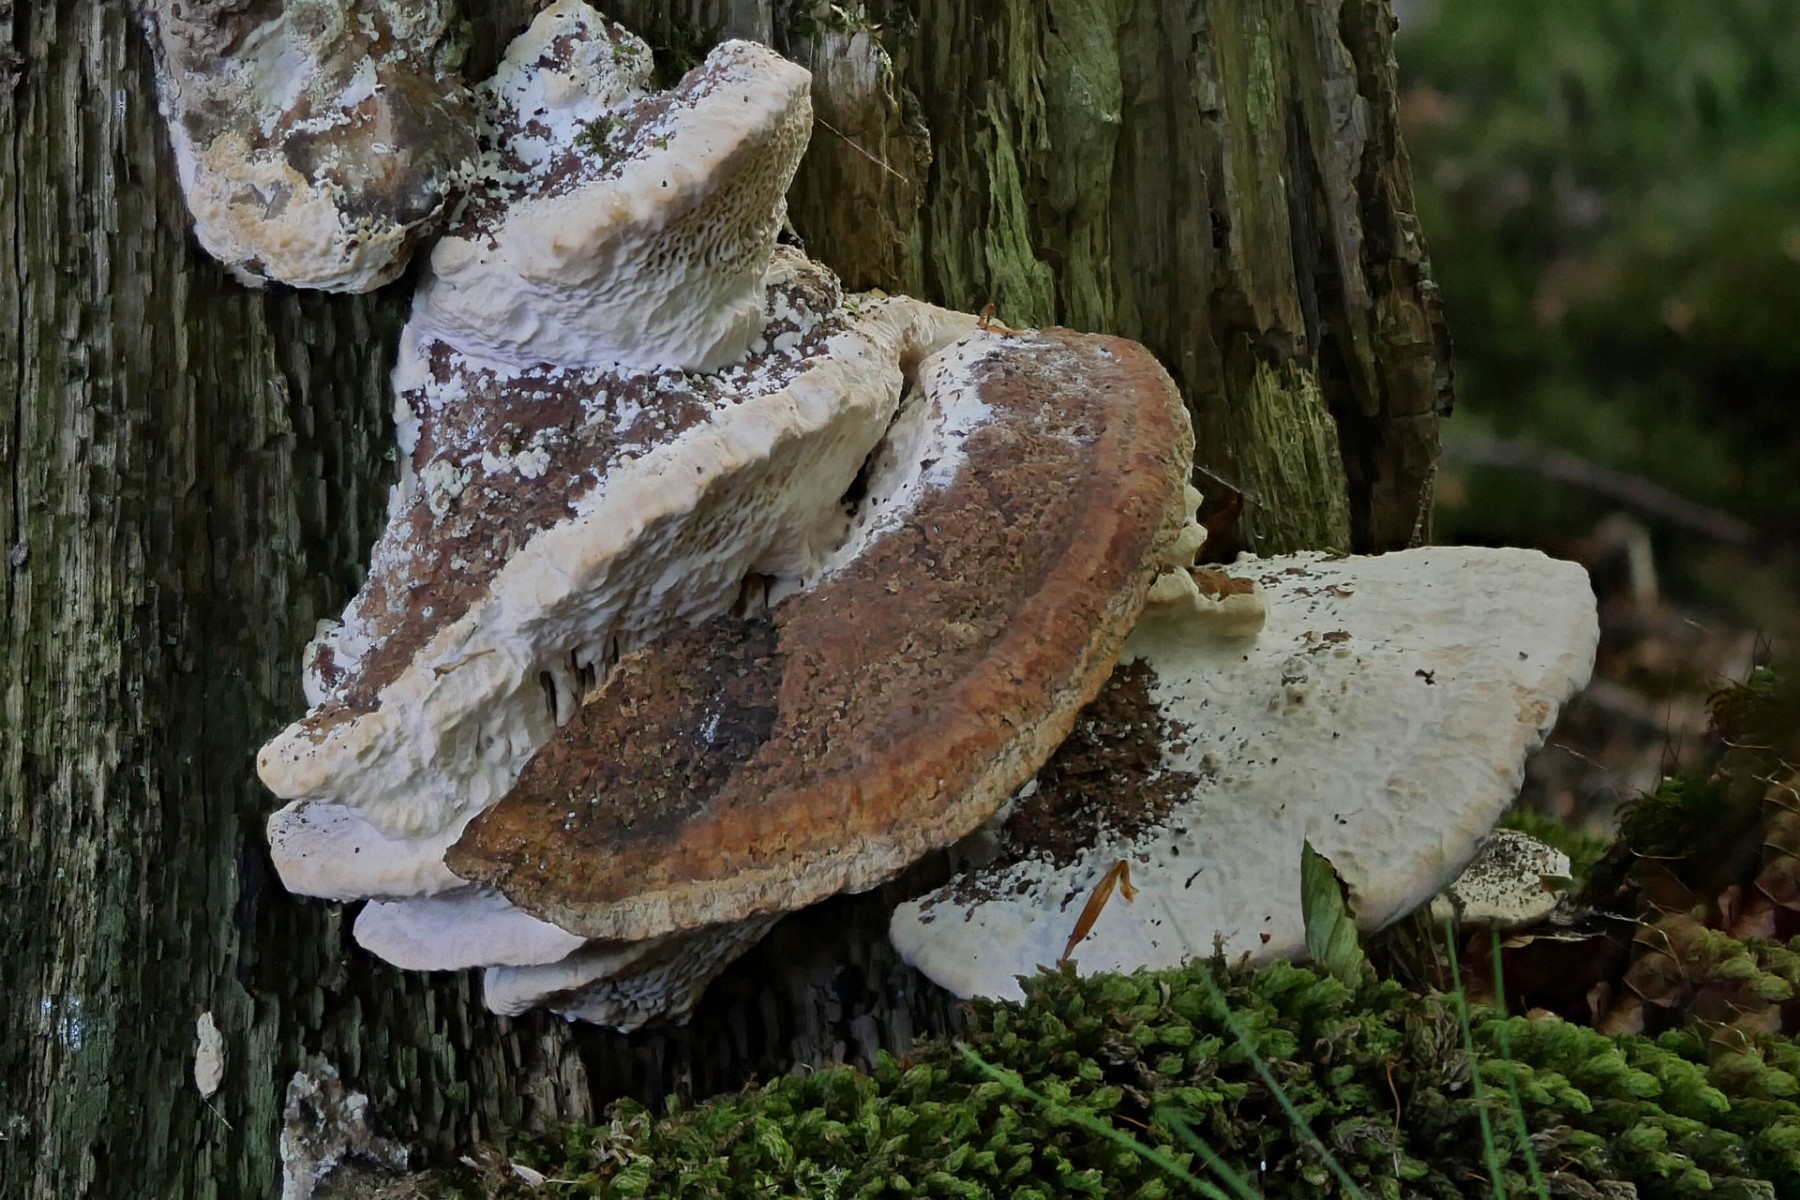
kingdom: Fungi
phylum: Basidiomycota
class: Agaricomycetes
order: Polyporales
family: Fomitopsidaceae
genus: Daedalea
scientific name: Daedalea quercina
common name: ege-labyrintsvamp
